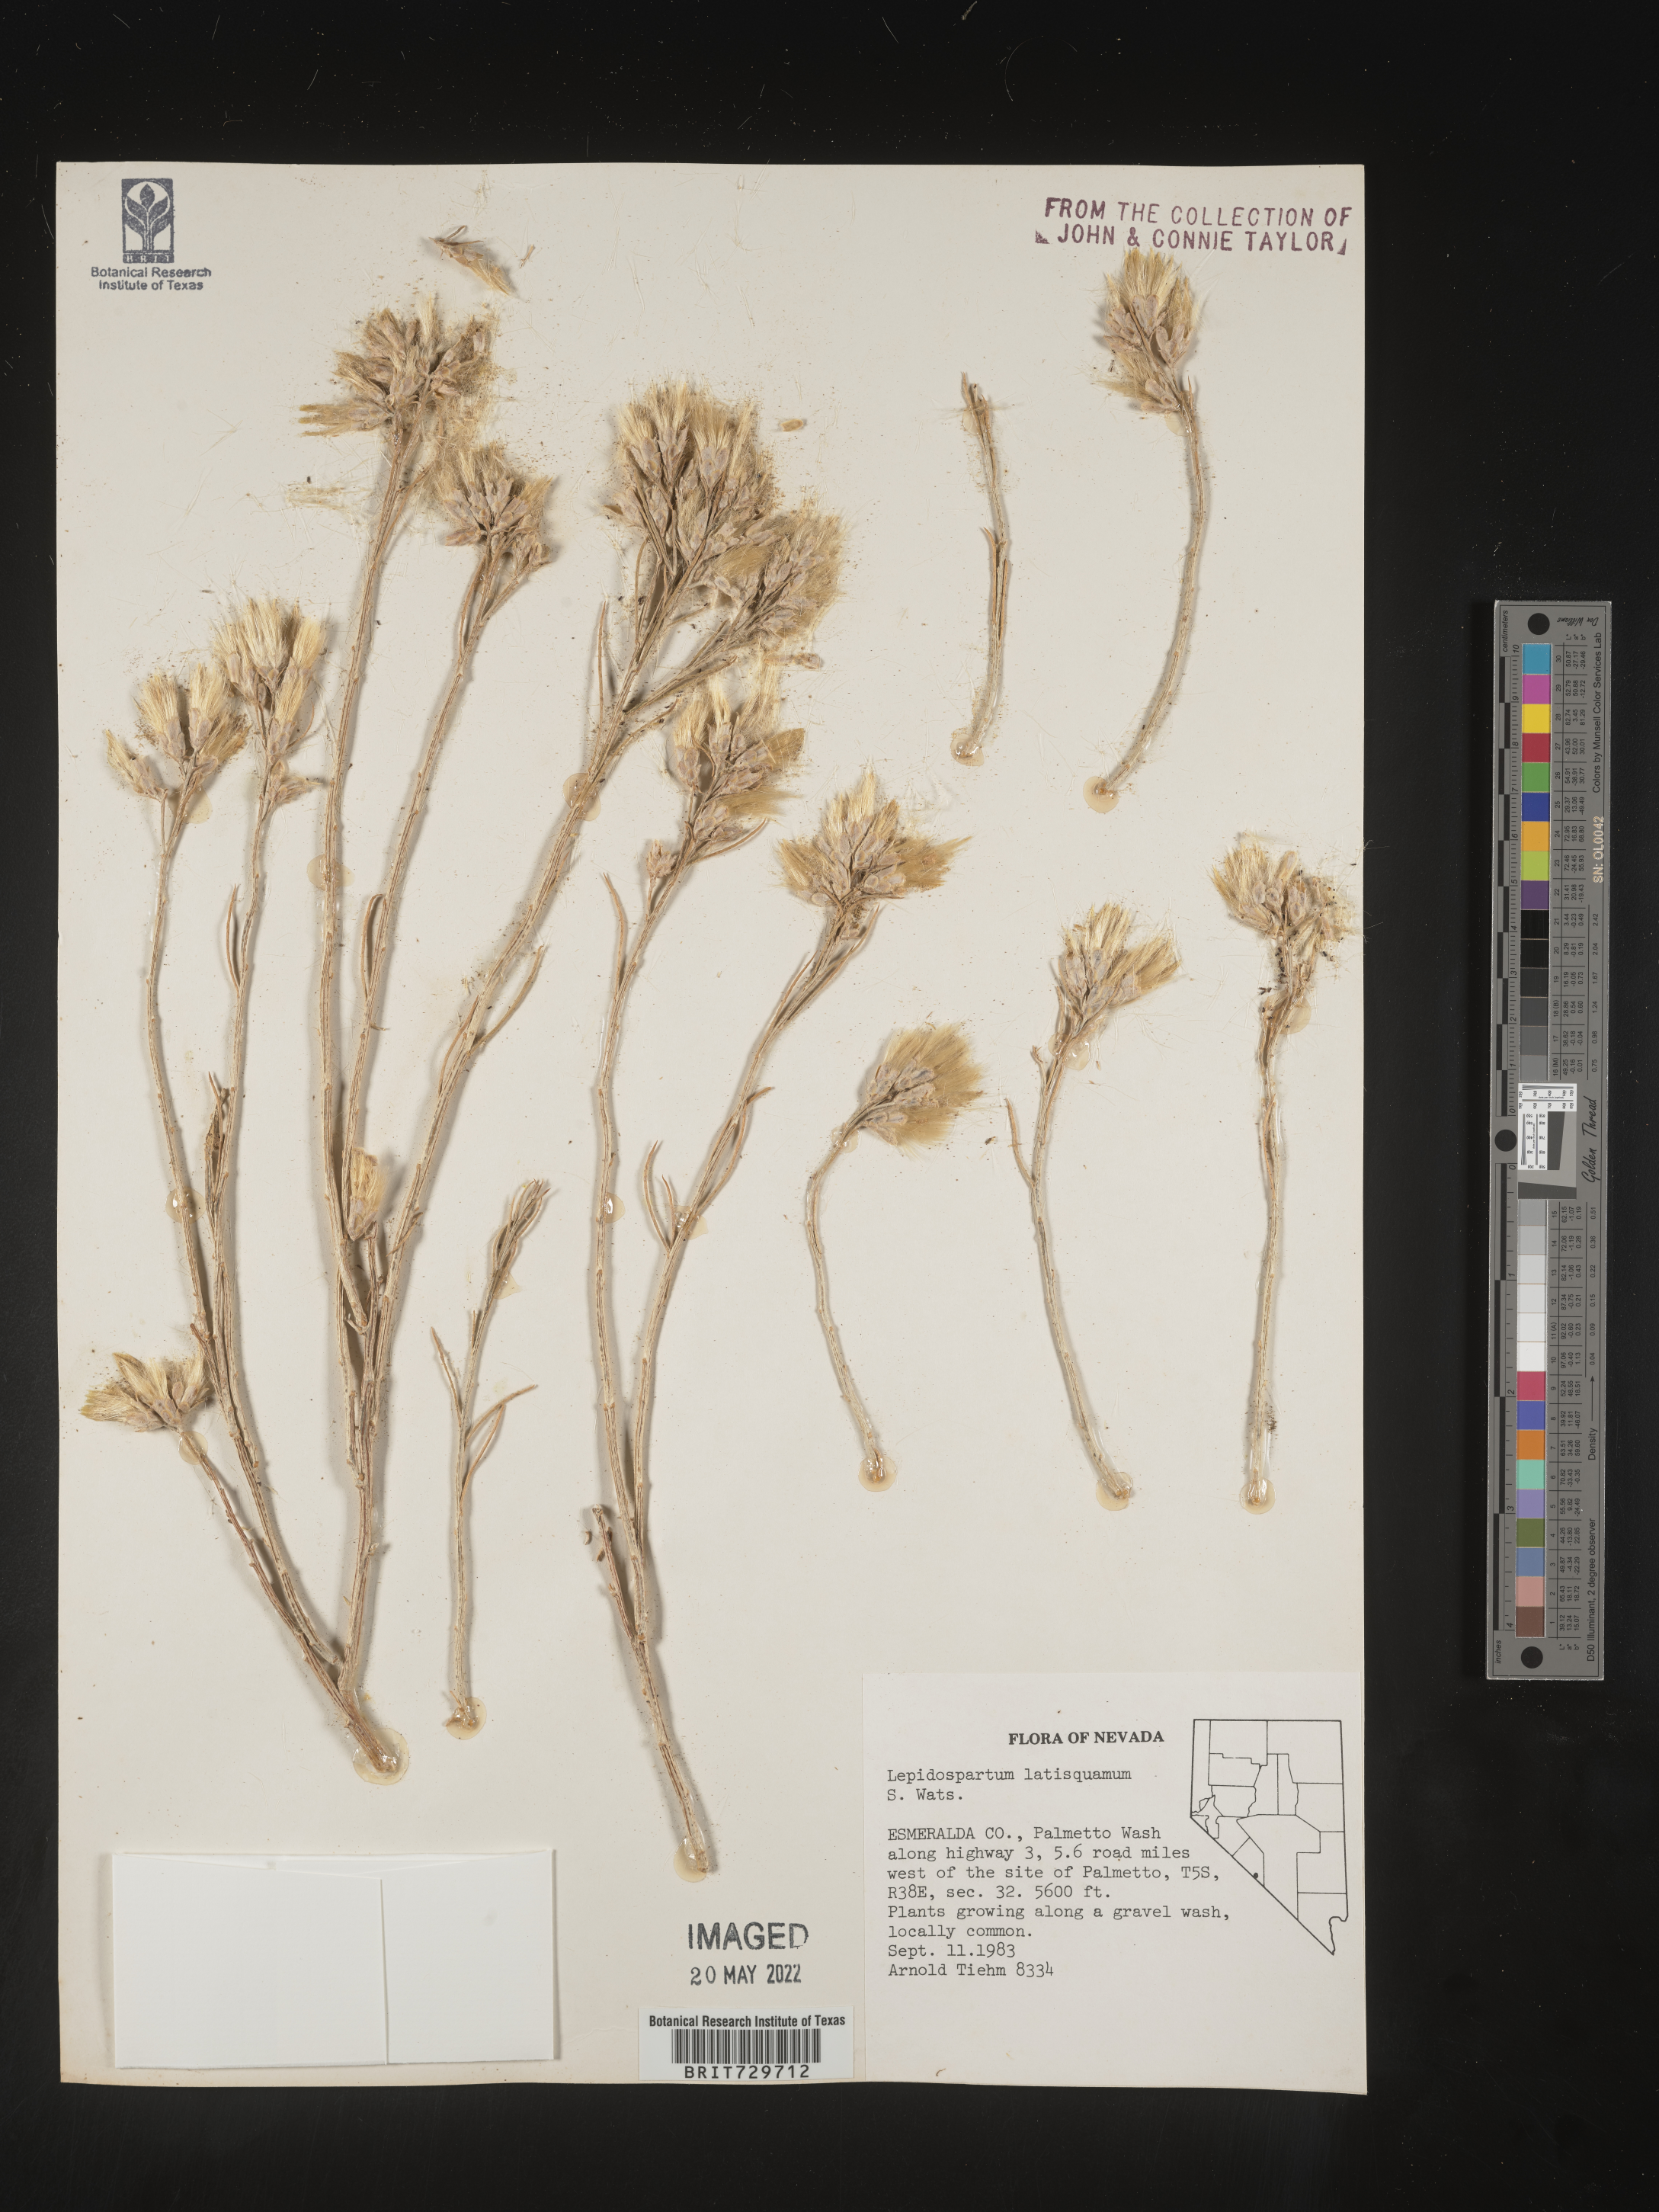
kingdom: Plantae
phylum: Tracheophyta
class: Magnoliopsida
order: Asterales
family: Asteraceae
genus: Lepidospartum
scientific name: Lepidospartum latisquamum
